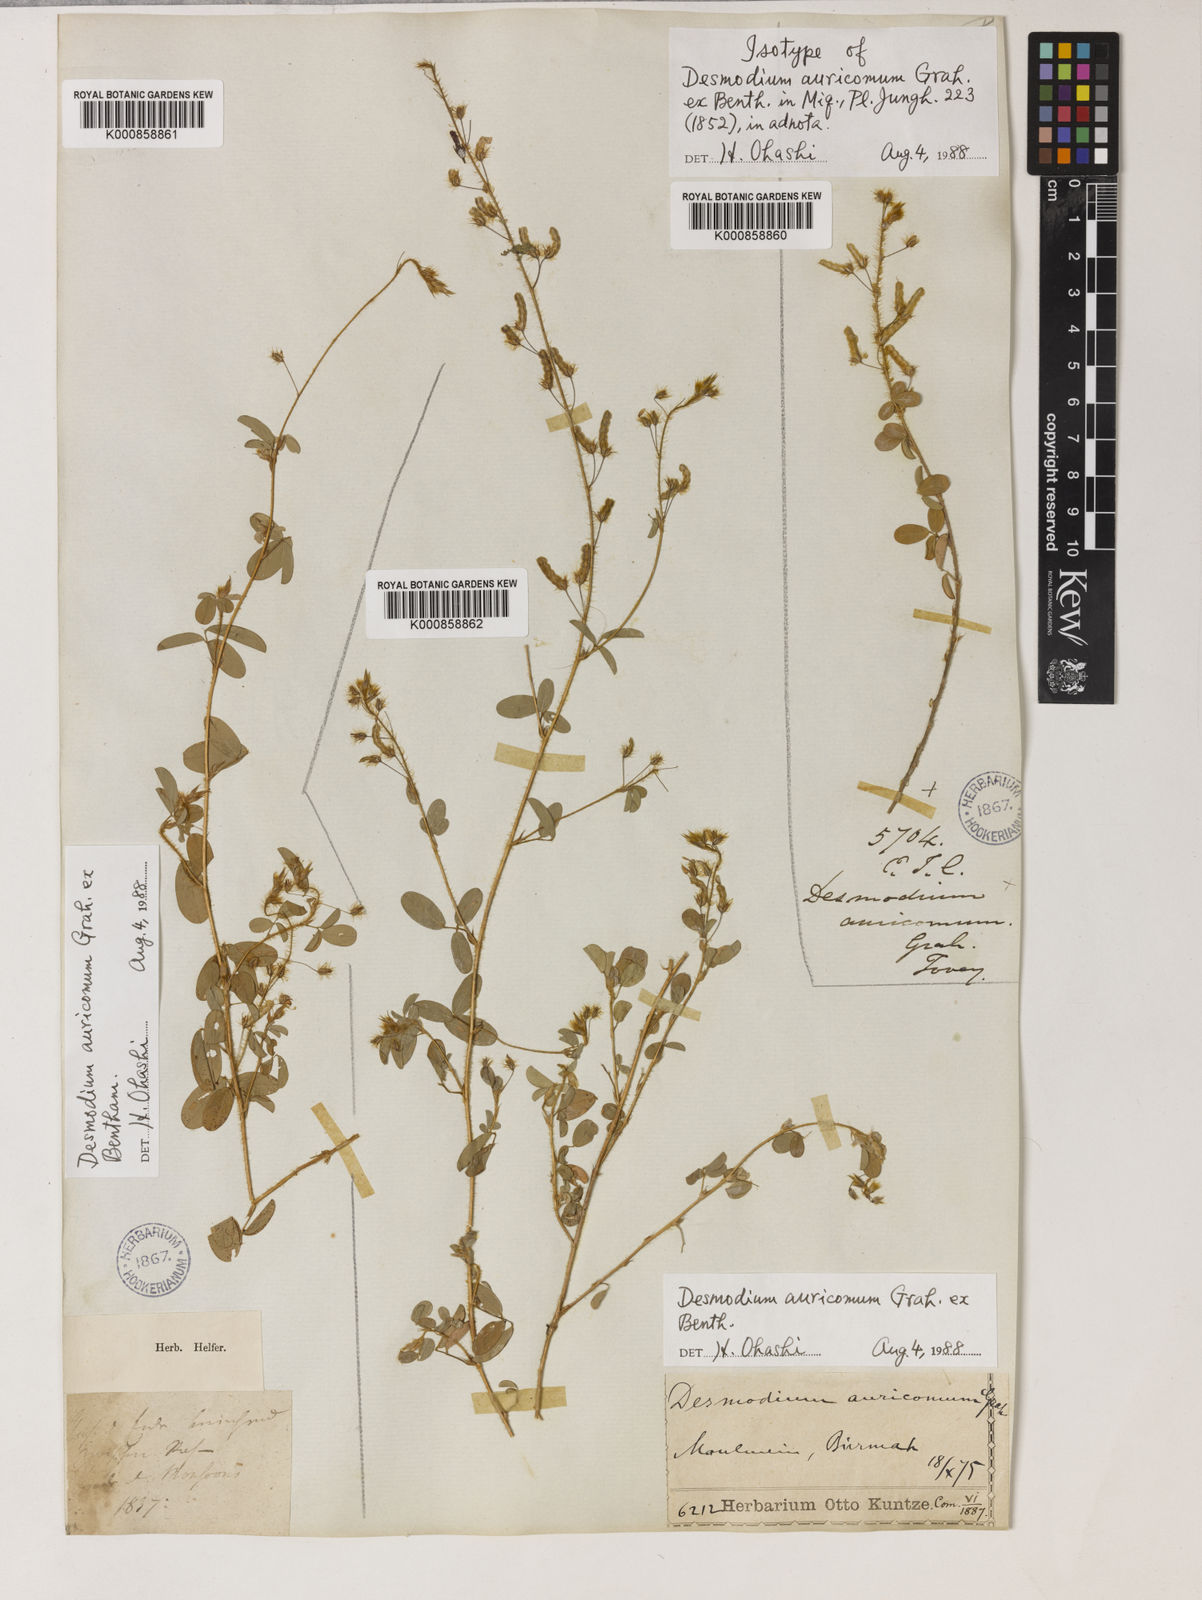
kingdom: Plantae
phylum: Tracheophyta
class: Magnoliopsida
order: Fabales
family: Fabaceae
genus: Grona
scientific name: Grona auricoma
